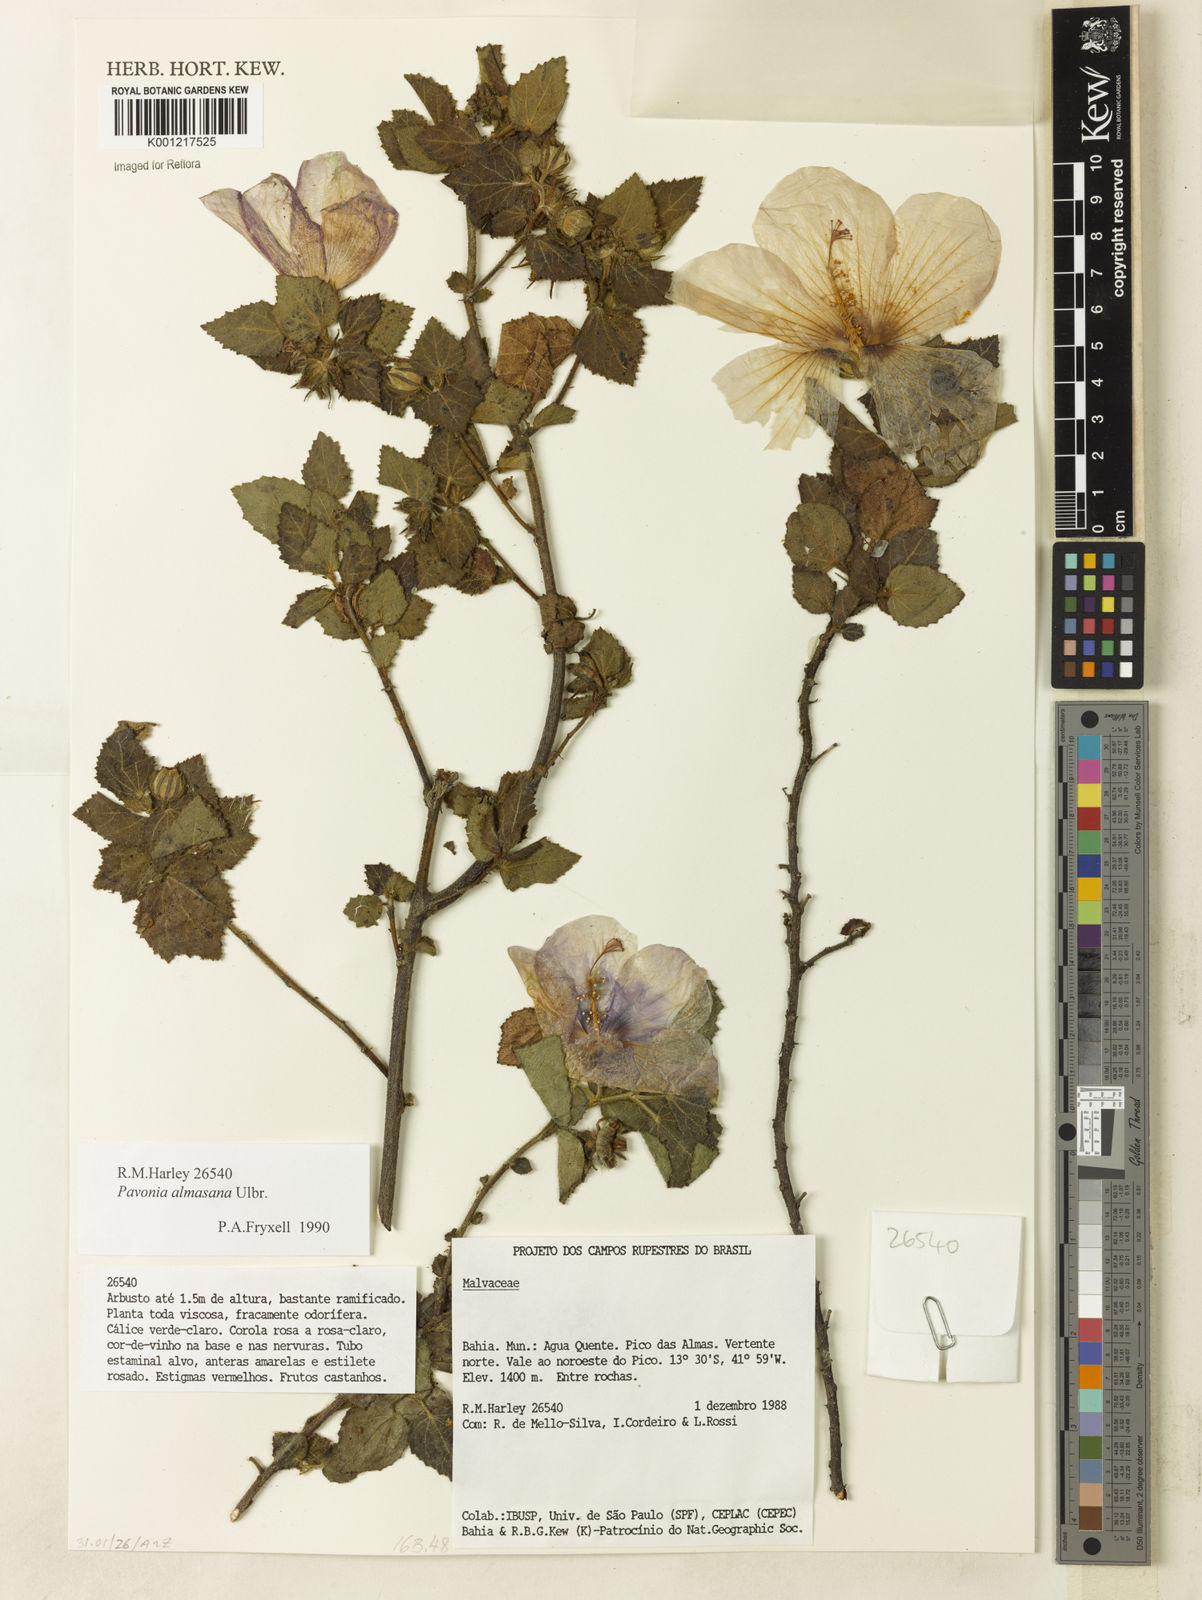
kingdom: Plantae
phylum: Tracheophyta
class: Magnoliopsida
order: Malvales
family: Malvaceae
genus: Pavonia
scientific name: Pavonia almasana
